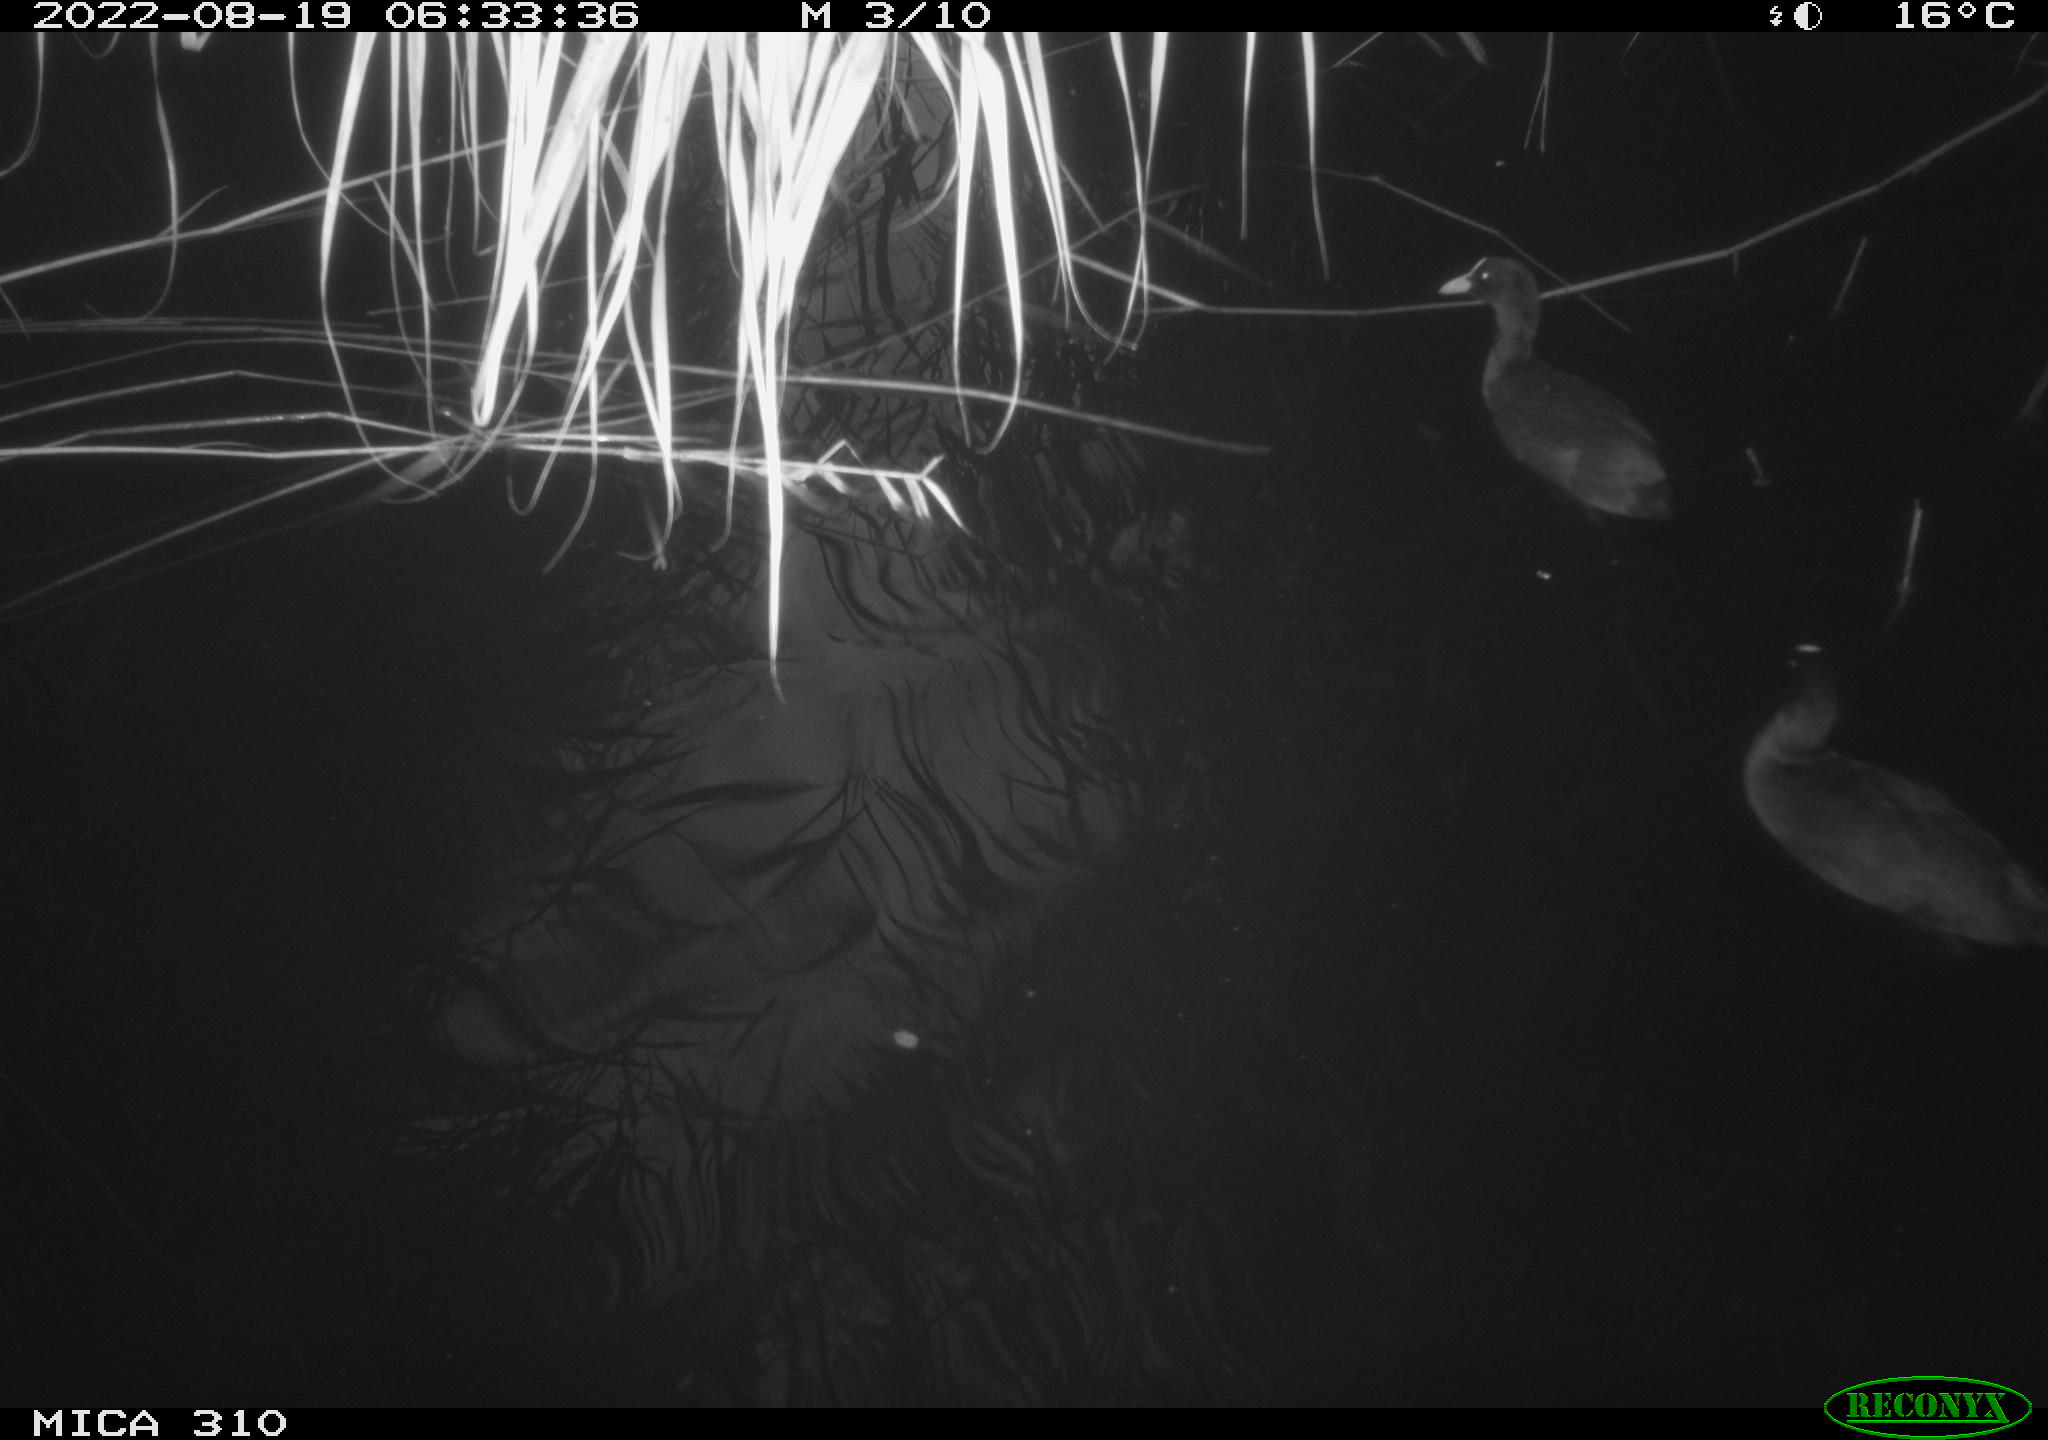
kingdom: Animalia
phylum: Chordata
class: Aves
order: Gruiformes
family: Rallidae
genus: Fulica
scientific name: Fulica atra
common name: Eurasian coot
